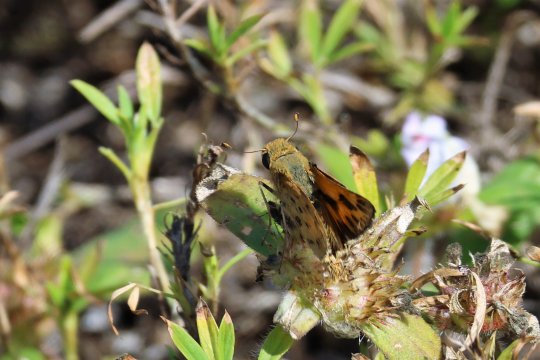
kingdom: Animalia
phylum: Arthropoda
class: Insecta
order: Lepidoptera
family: Hesperiidae
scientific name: Hesperiidae
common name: Skippers
